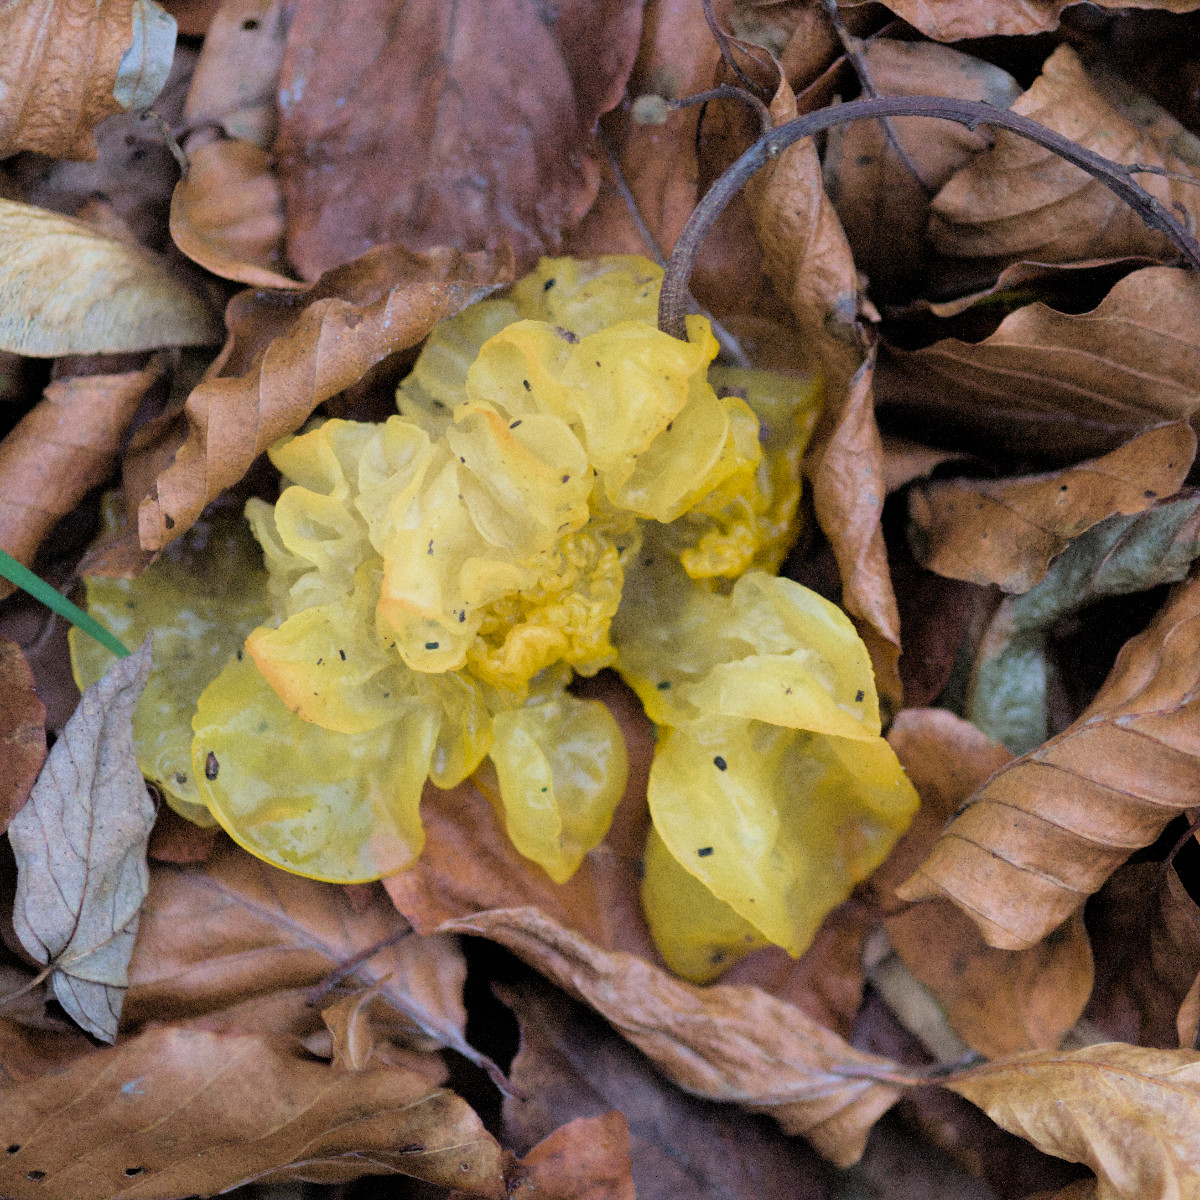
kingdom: Fungi
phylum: Basidiomycota
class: Tremellomycetes
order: Tremellales
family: Tremellaceae
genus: Tremella
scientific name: Tremella mesenterica
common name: gul bævresvamp
